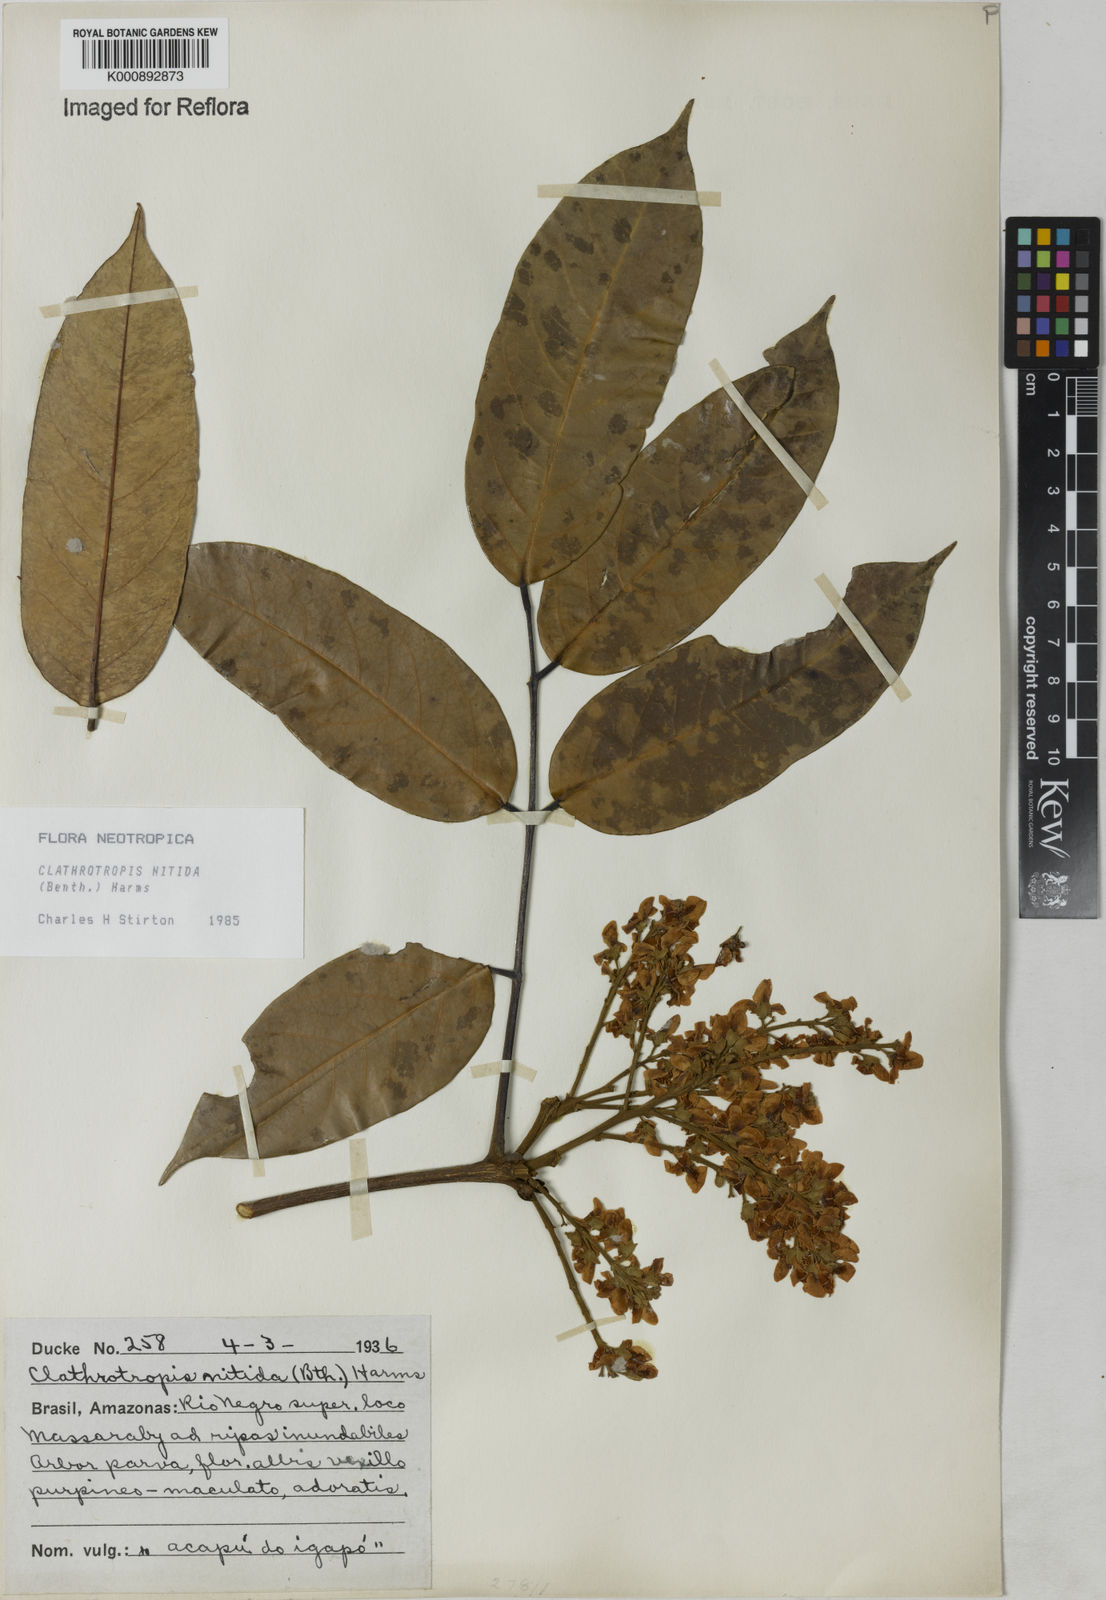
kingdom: Plantae
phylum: Tracheophyta
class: Magnoliopsida
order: Fabales
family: Fabaceae
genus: Clathrotropis
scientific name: Clathrotropis nitida
